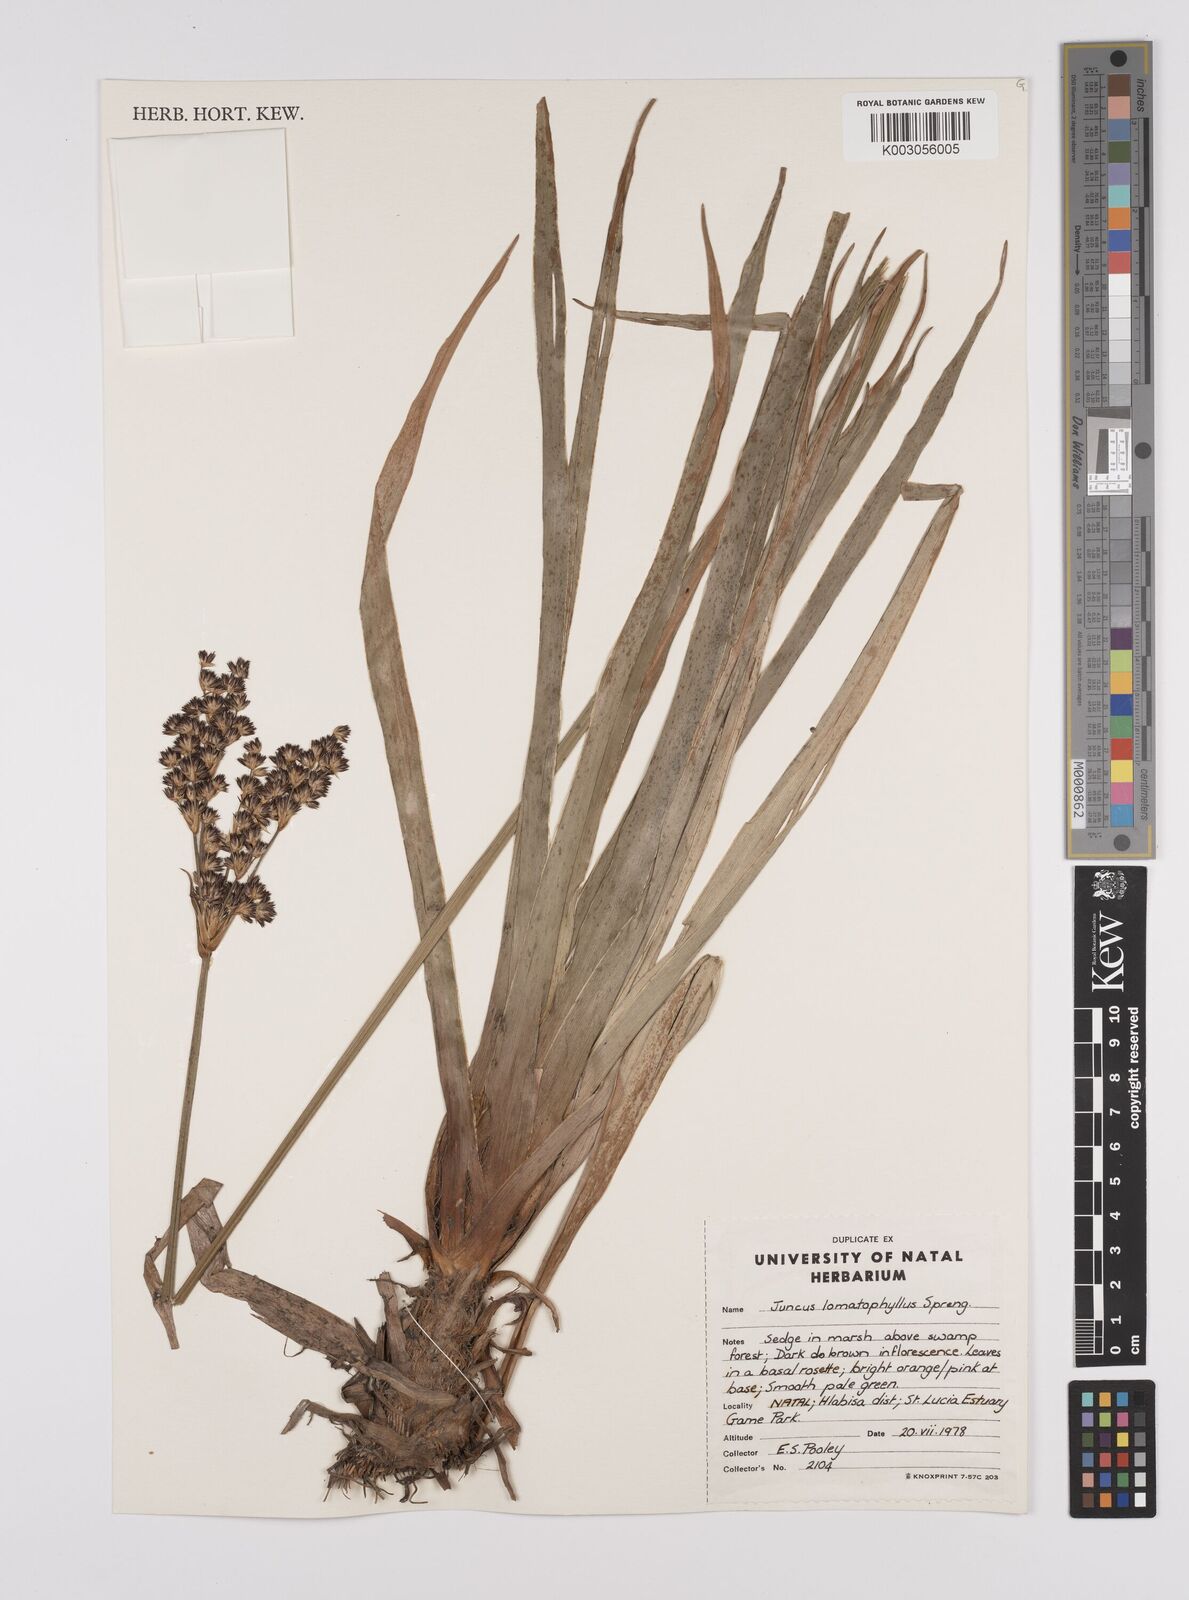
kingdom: Plantae
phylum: Tracheophyta
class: Liliopsida
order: Poales
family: Juncaceae
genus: Juncus
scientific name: Juncus lomatophyllus
